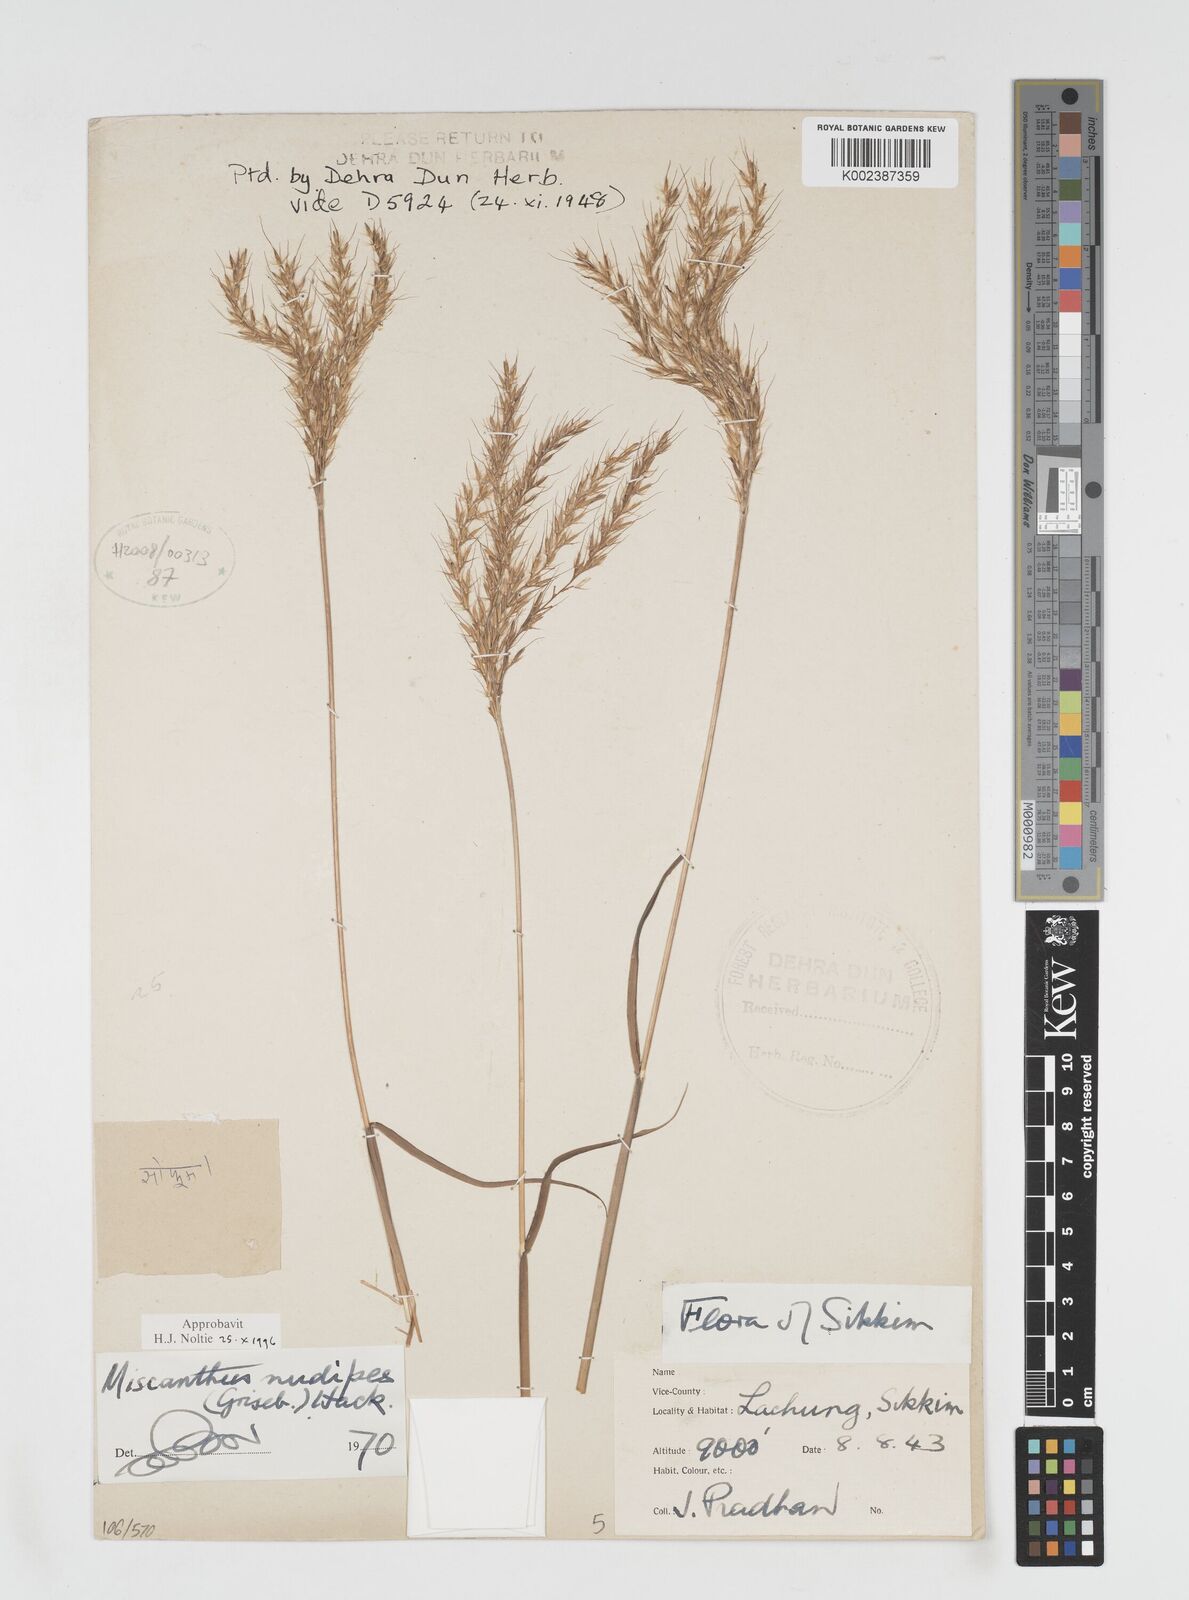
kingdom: Plantae
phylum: Tracheophyta
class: Liliopsida
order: Poales
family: Poaceae
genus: Miscanthus
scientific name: Miscanthus nudipes
